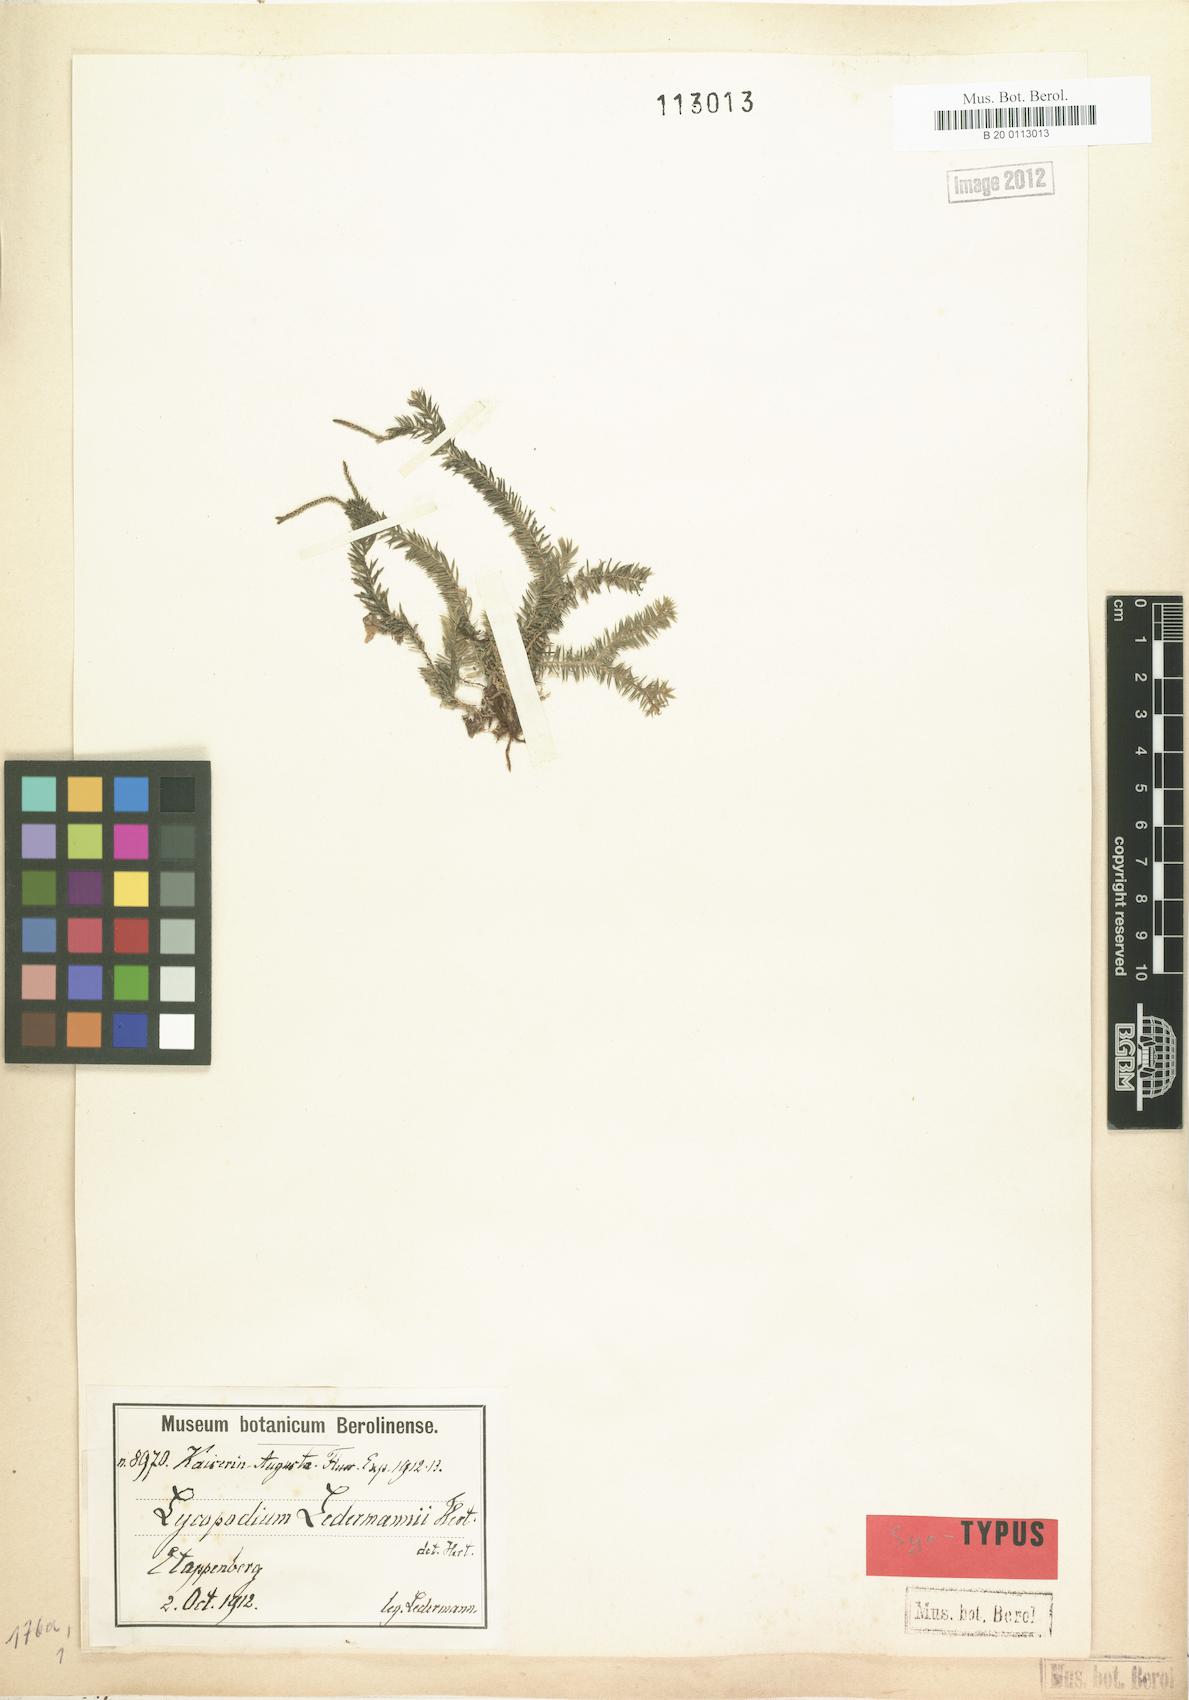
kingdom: Plantae
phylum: Tracheophyta
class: Lycopodiopsida
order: Lycopodiales
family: Lycopodiaceae
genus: Phlegmariurus
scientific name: Phlegmariurus ledermannii
